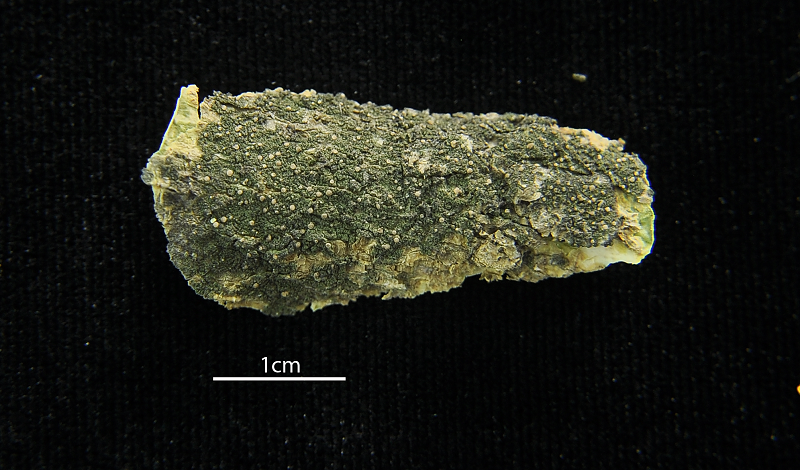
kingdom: Fungi
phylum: Ascomycota
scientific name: Ascomycota
